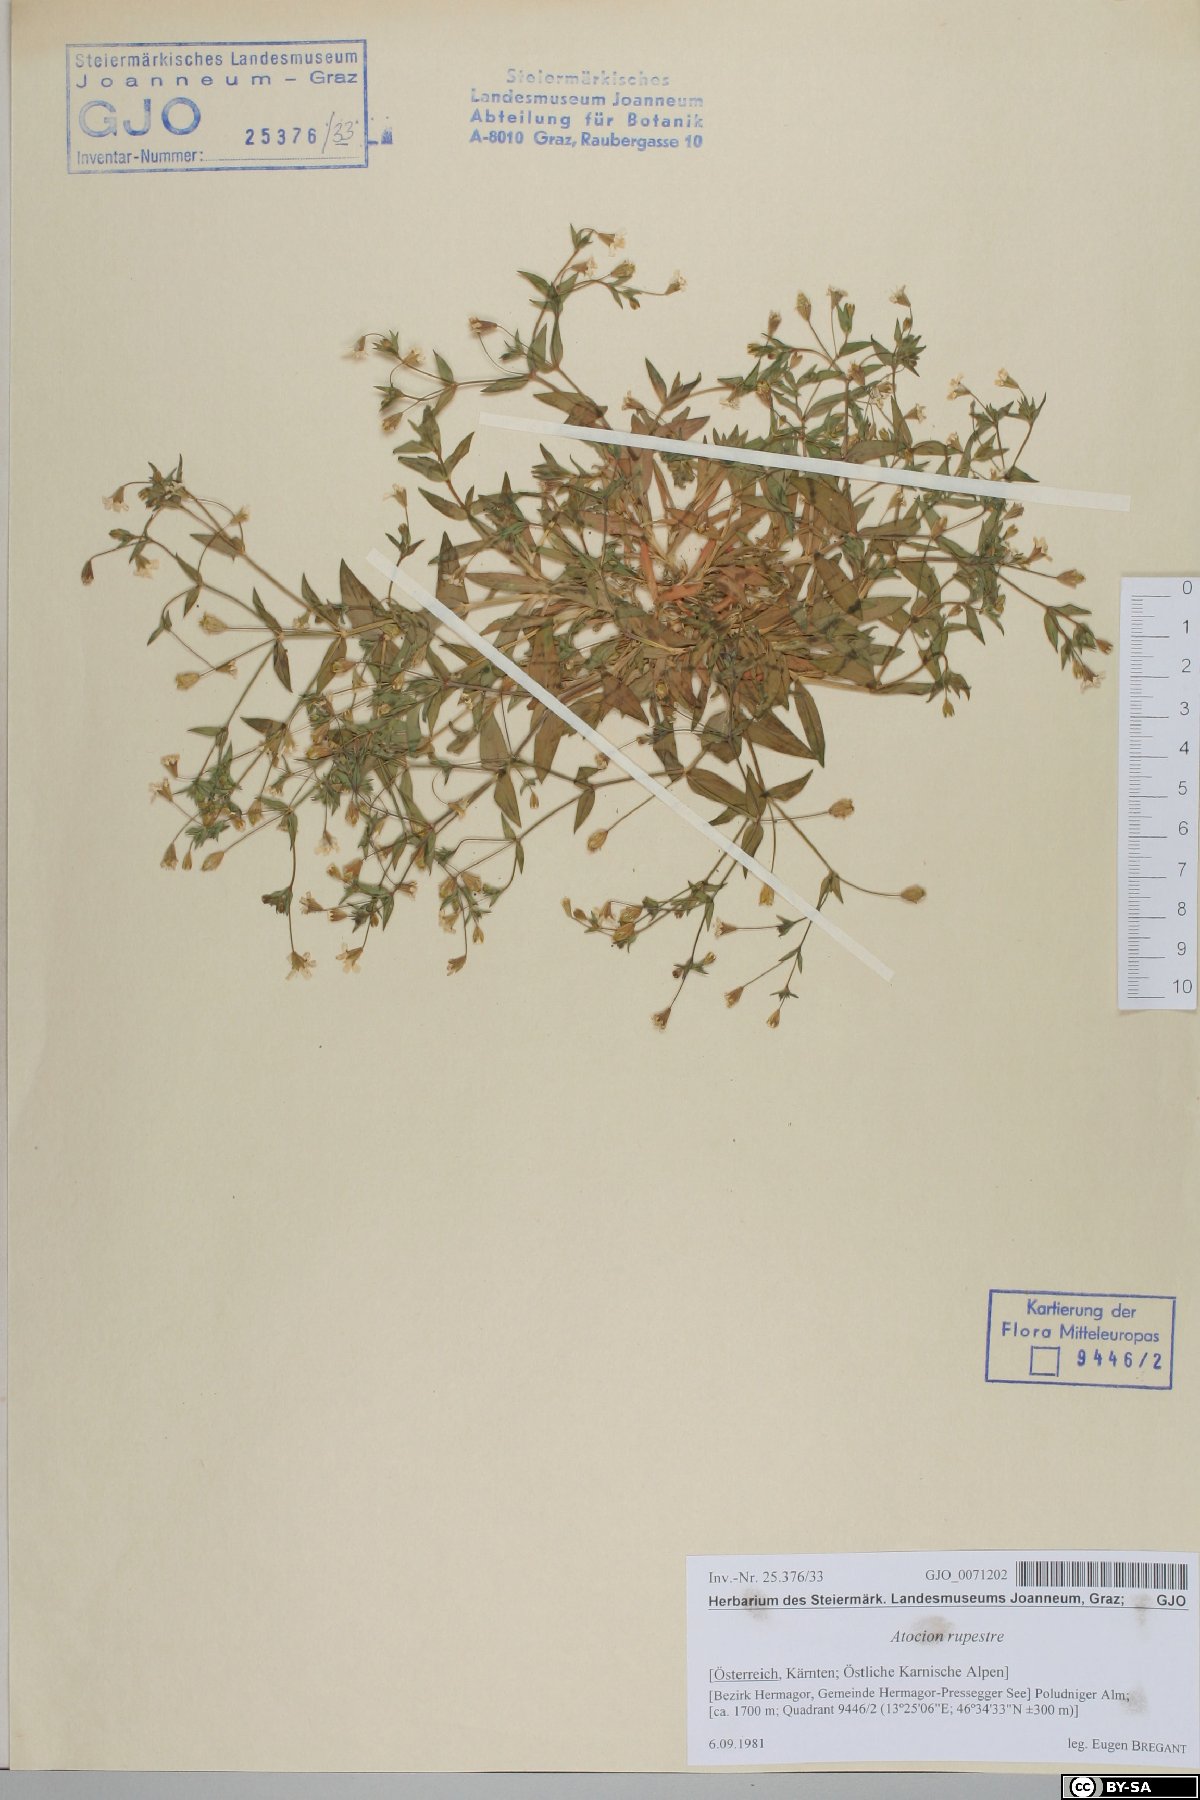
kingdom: Plantae
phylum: Tracheophyta
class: Magnoliopsida
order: Caryophyllales
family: Caryophyllaceae
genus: Atocion
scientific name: Atocion rupestre
